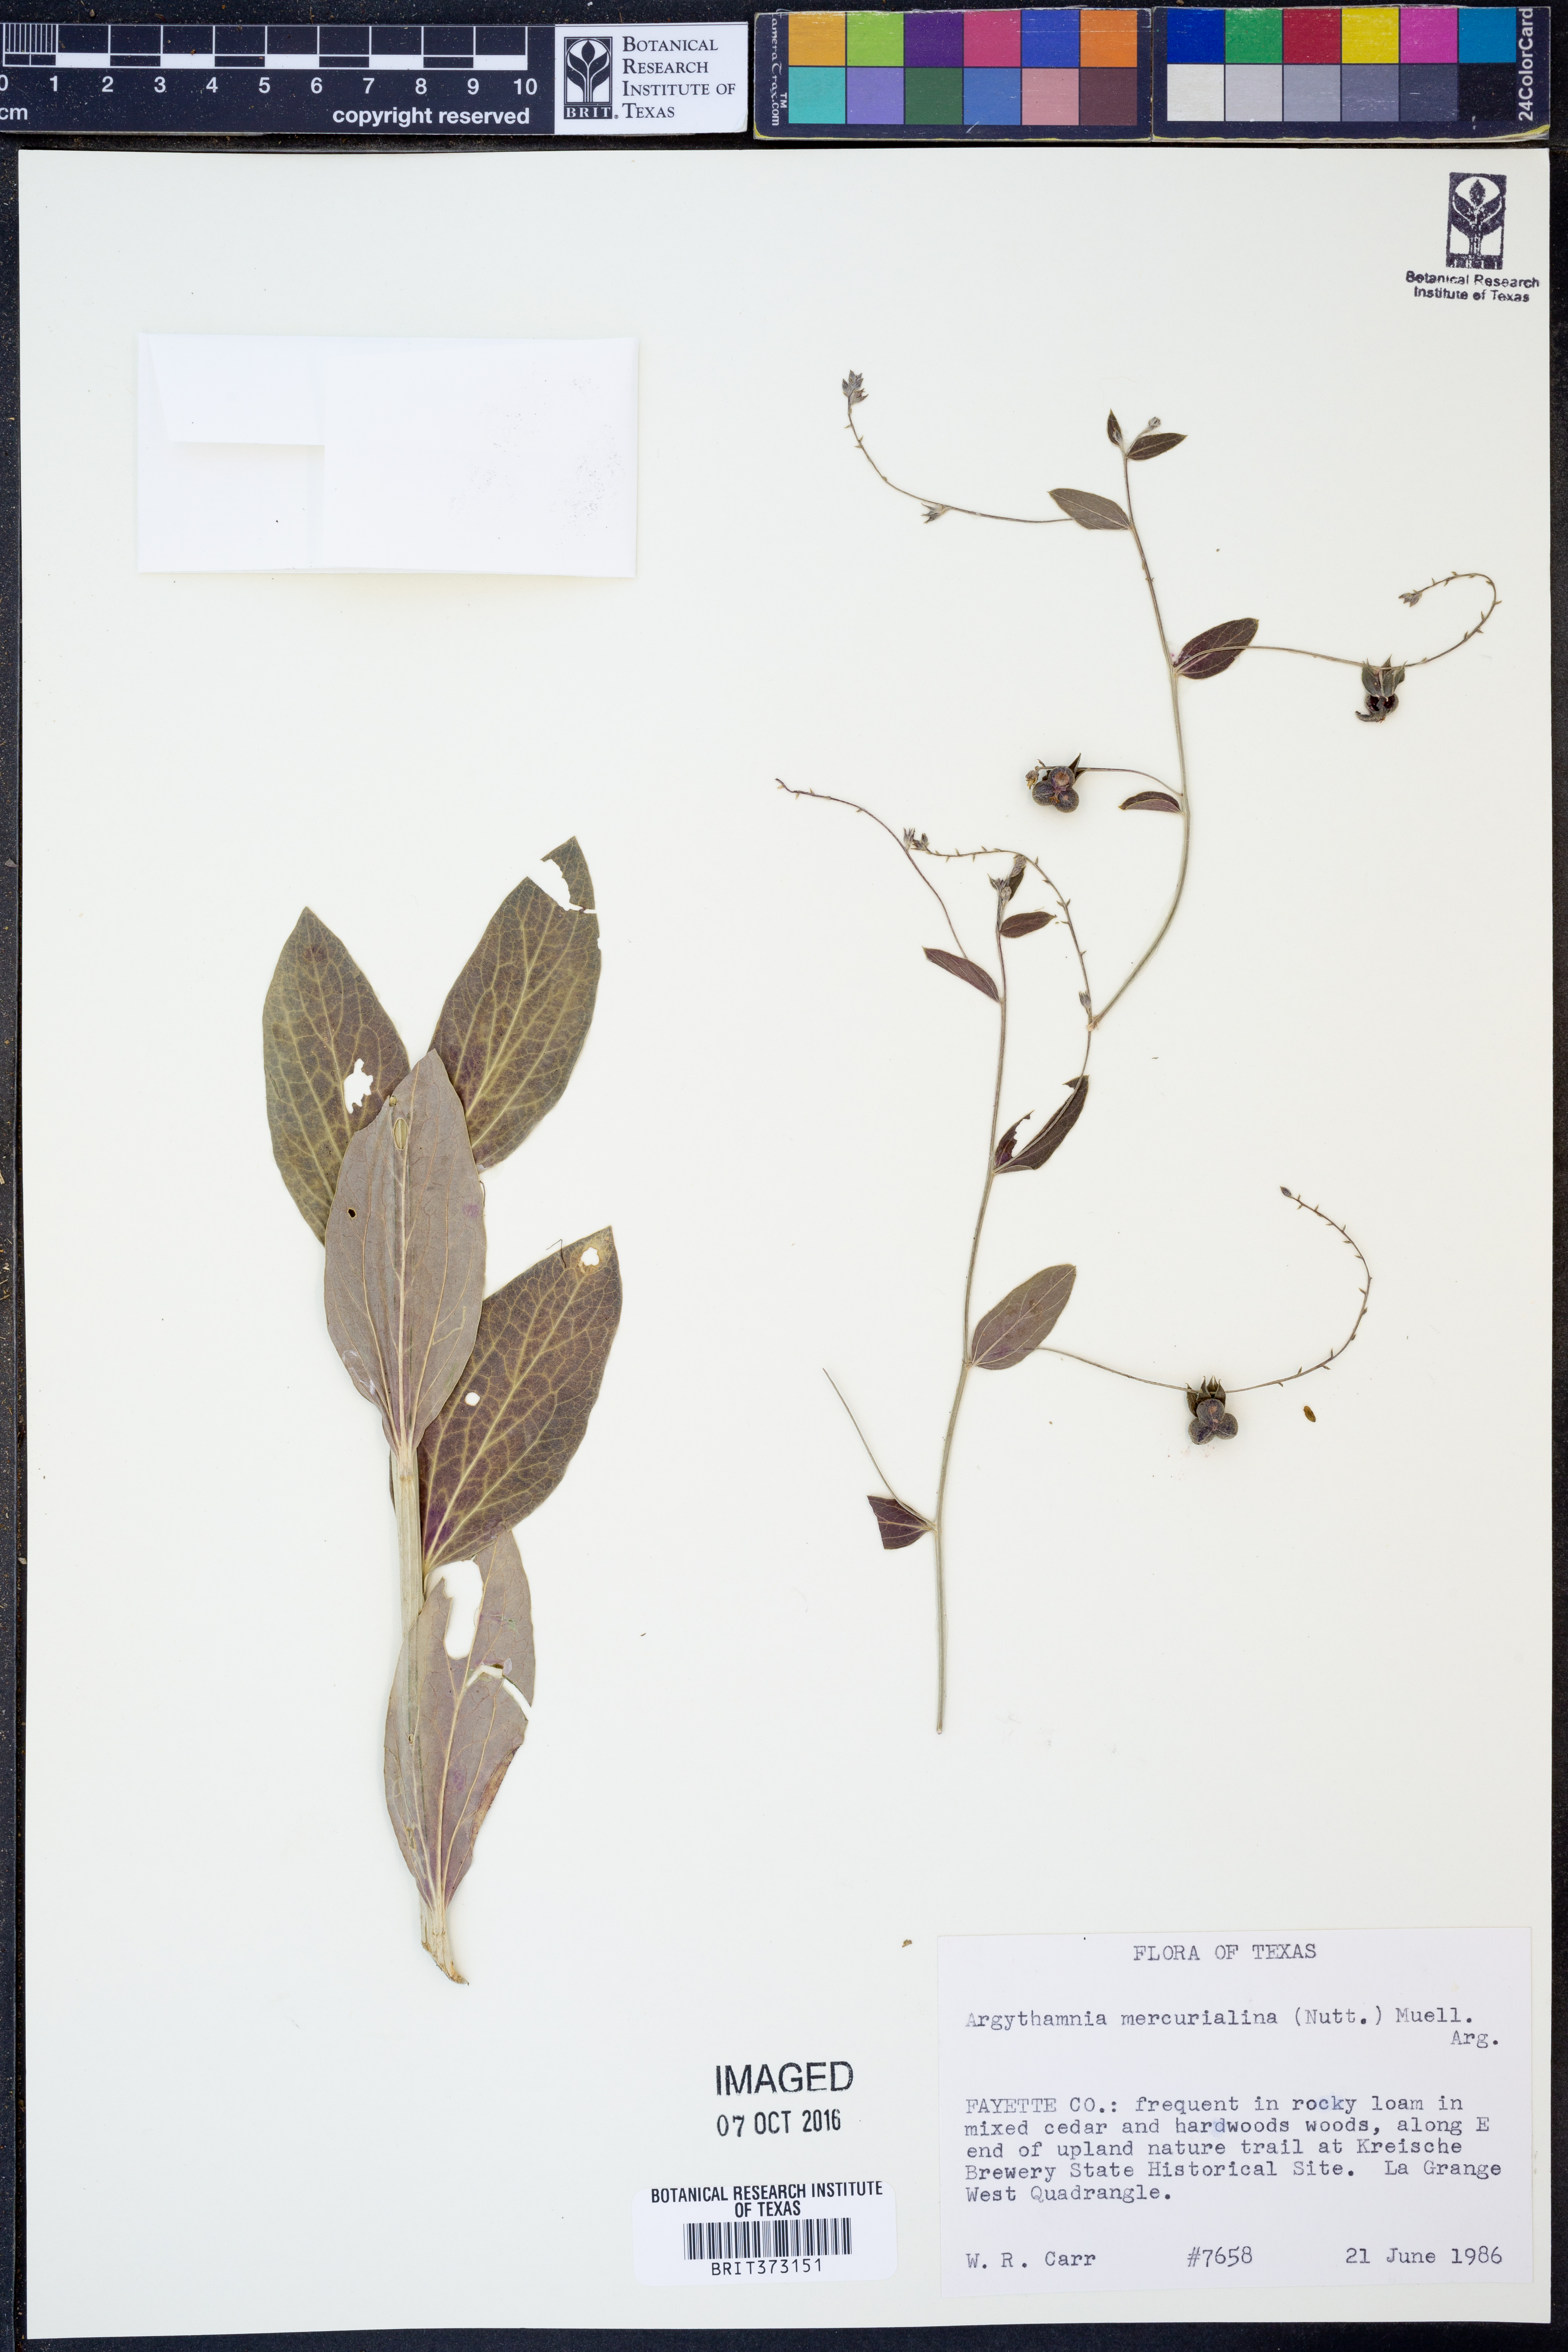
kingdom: Plantae
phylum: Tracheophyta
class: Magnoliopsida
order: Malpighiales
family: Euphorbiaceae
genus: Ditaxis
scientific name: Ditaxis mercurialina
